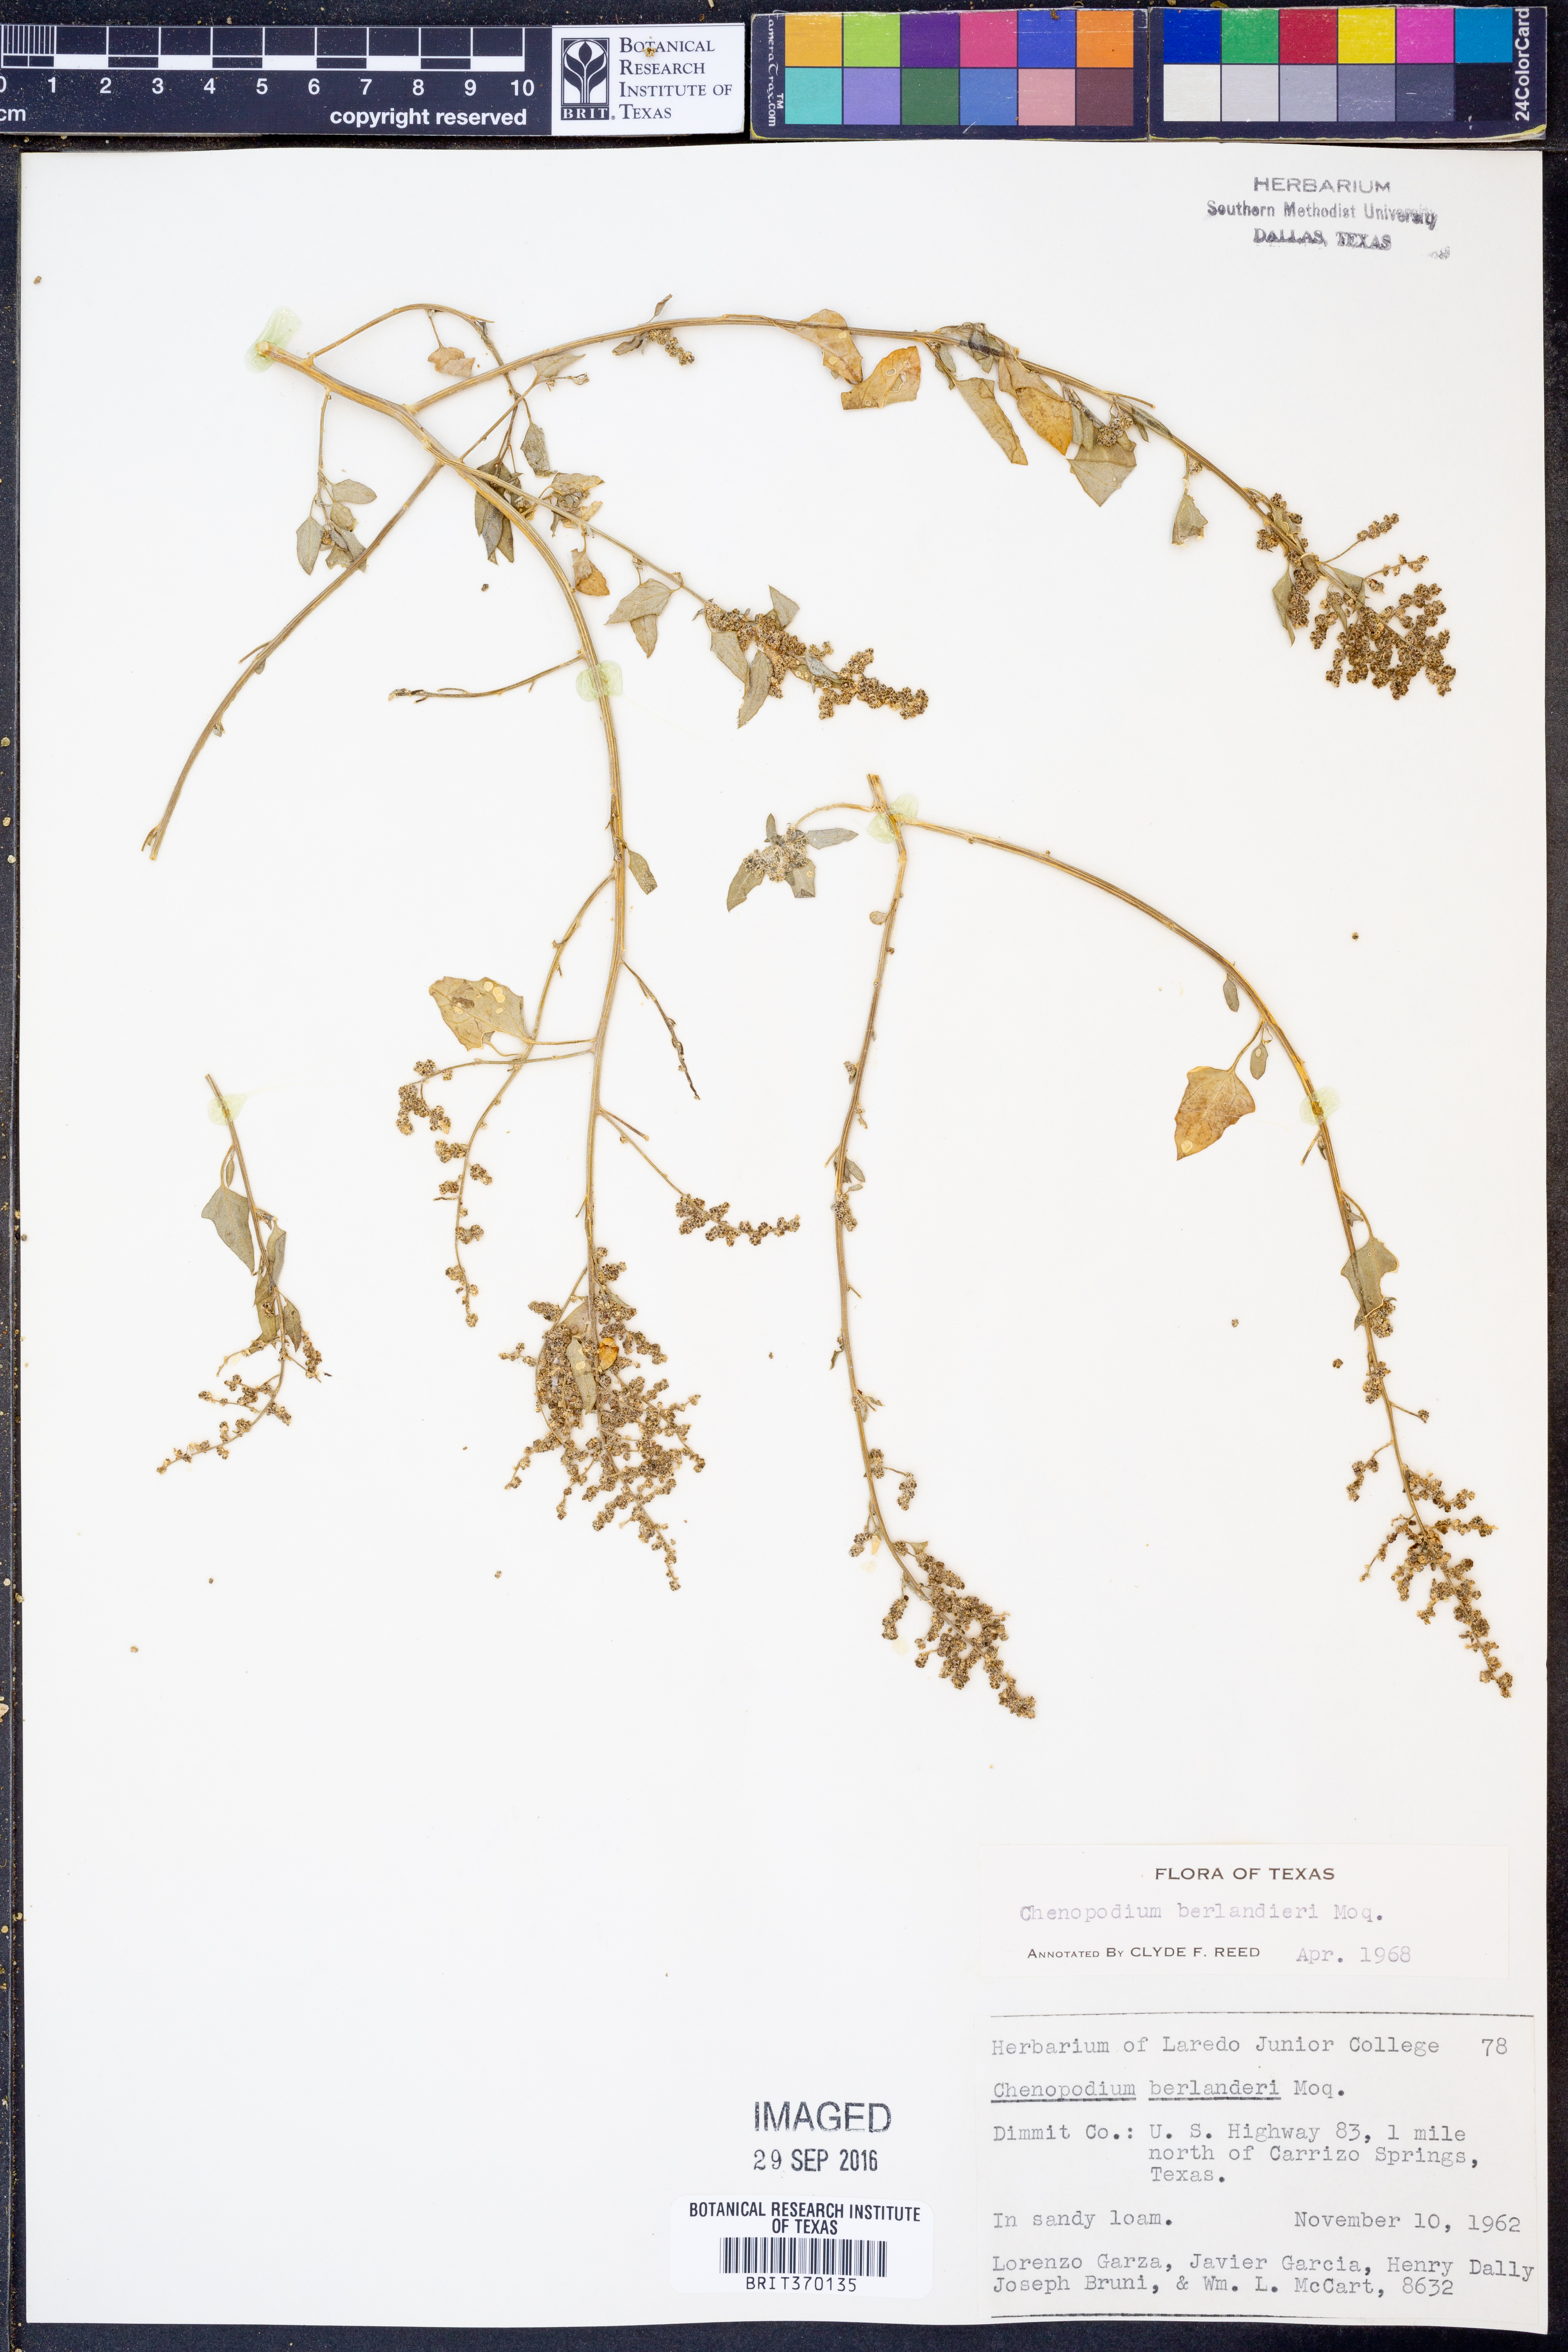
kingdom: Plantae
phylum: Tracheophyta
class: Magnoliopsida
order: Caryophyllales
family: Amaranthaceae
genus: Chenopodium
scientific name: Chenopodium berlandieri
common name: Pit-seed goosefoot
